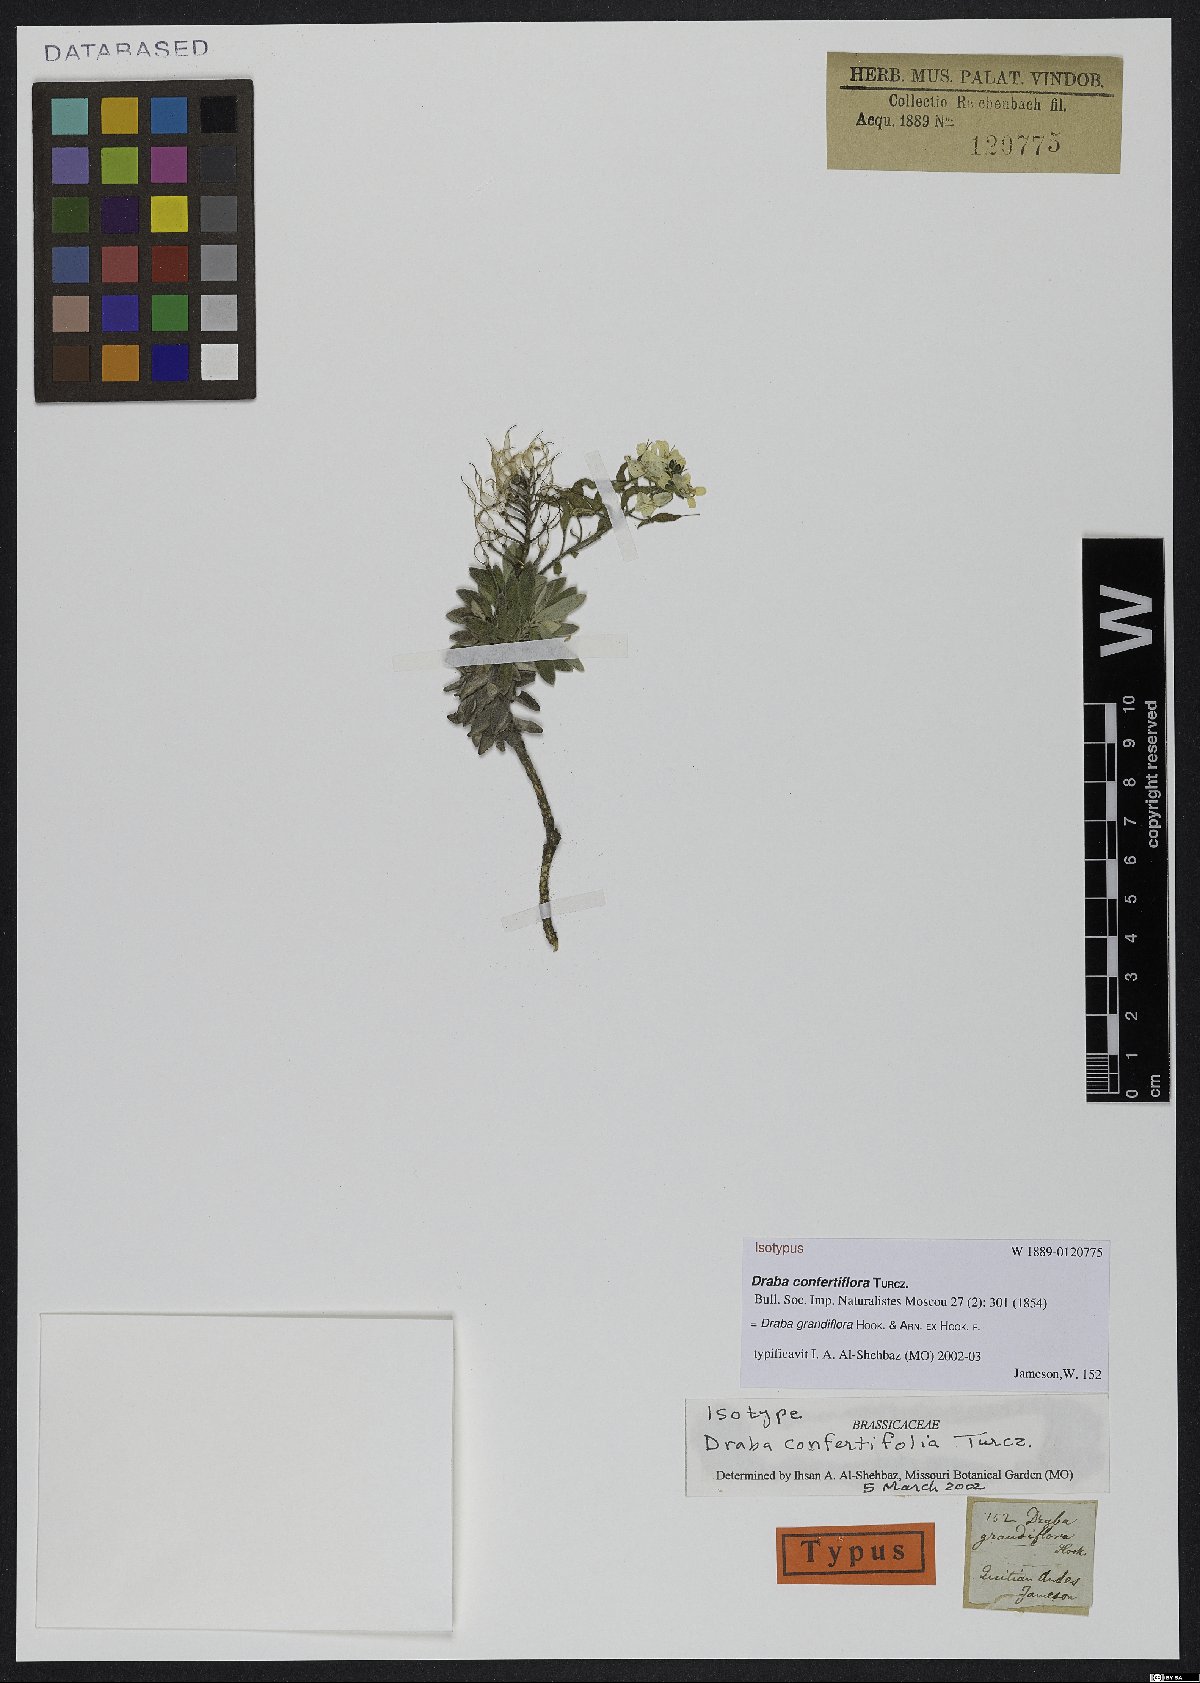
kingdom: Plantae
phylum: Tracheophyta
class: Magnoliopsida
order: Brassicales
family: Brassicaceae
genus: Draba
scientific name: Draba confertifolia
